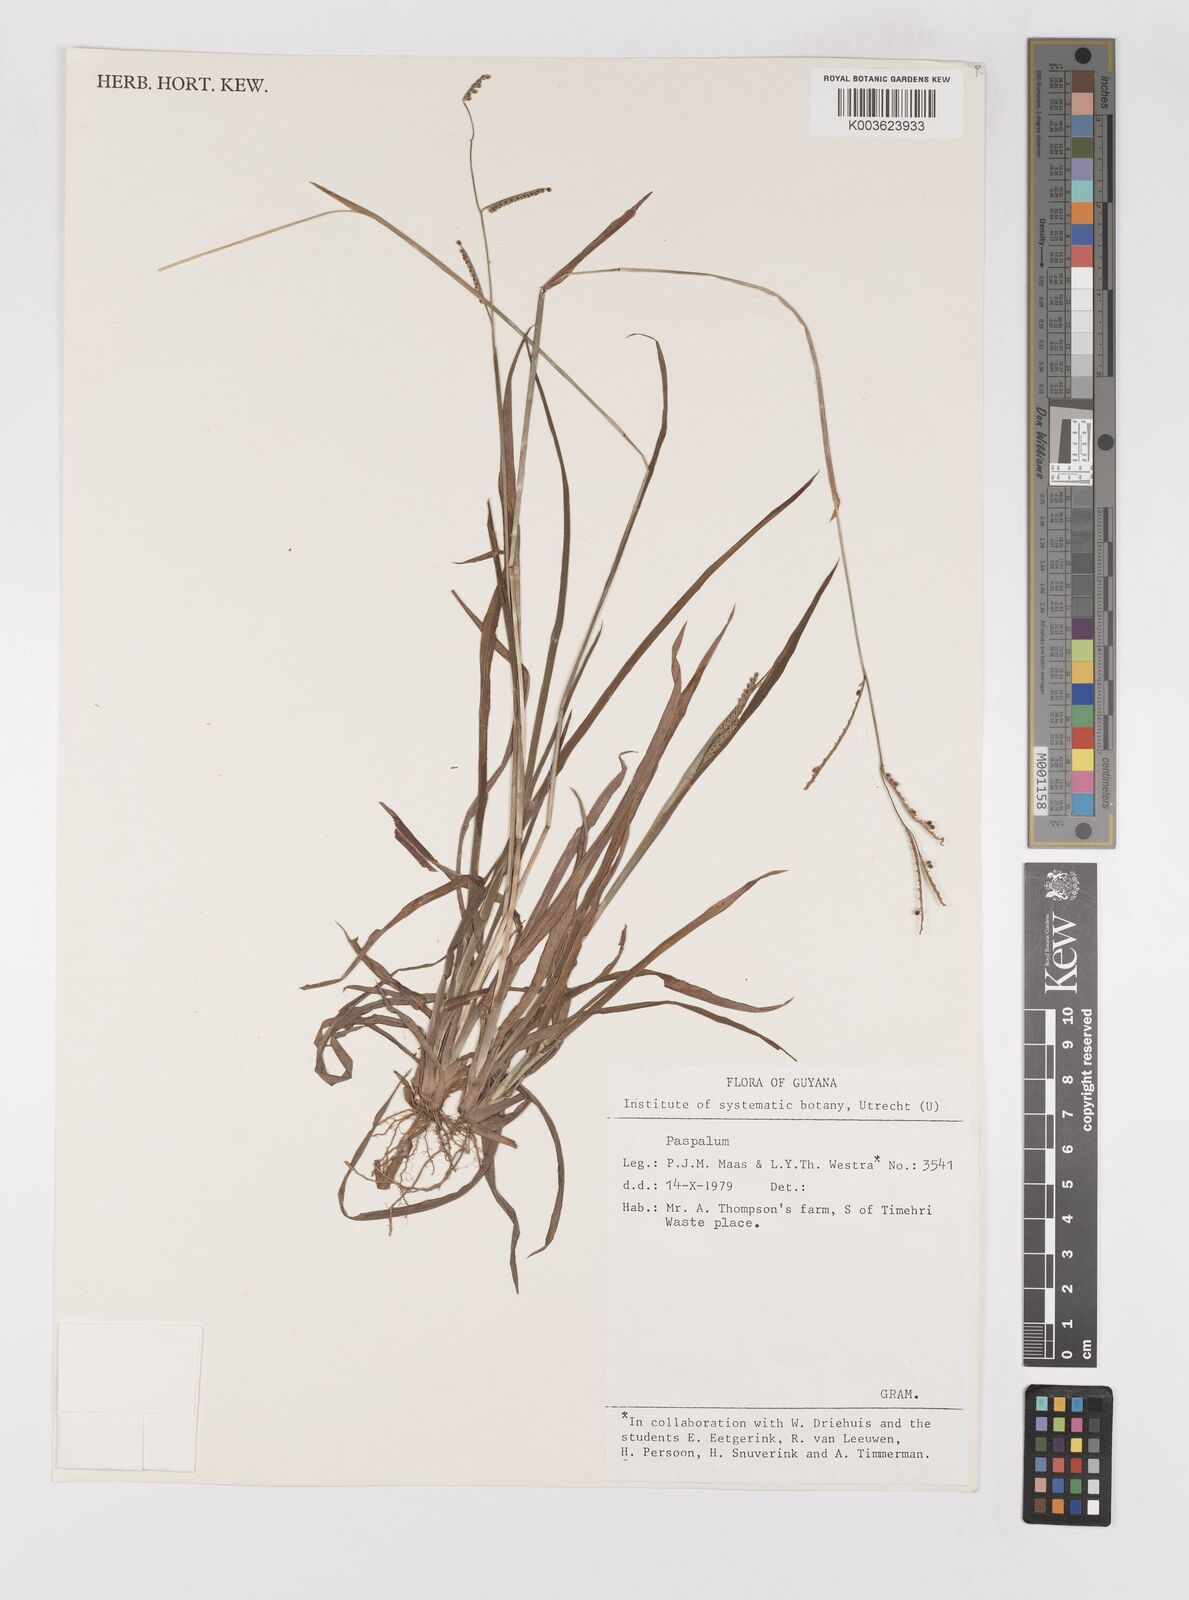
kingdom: Plantae
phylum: Tracheophyta
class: Liliopsida
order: Poales
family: Poaceae
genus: Paspalum
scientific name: Paspalum melanospermum
